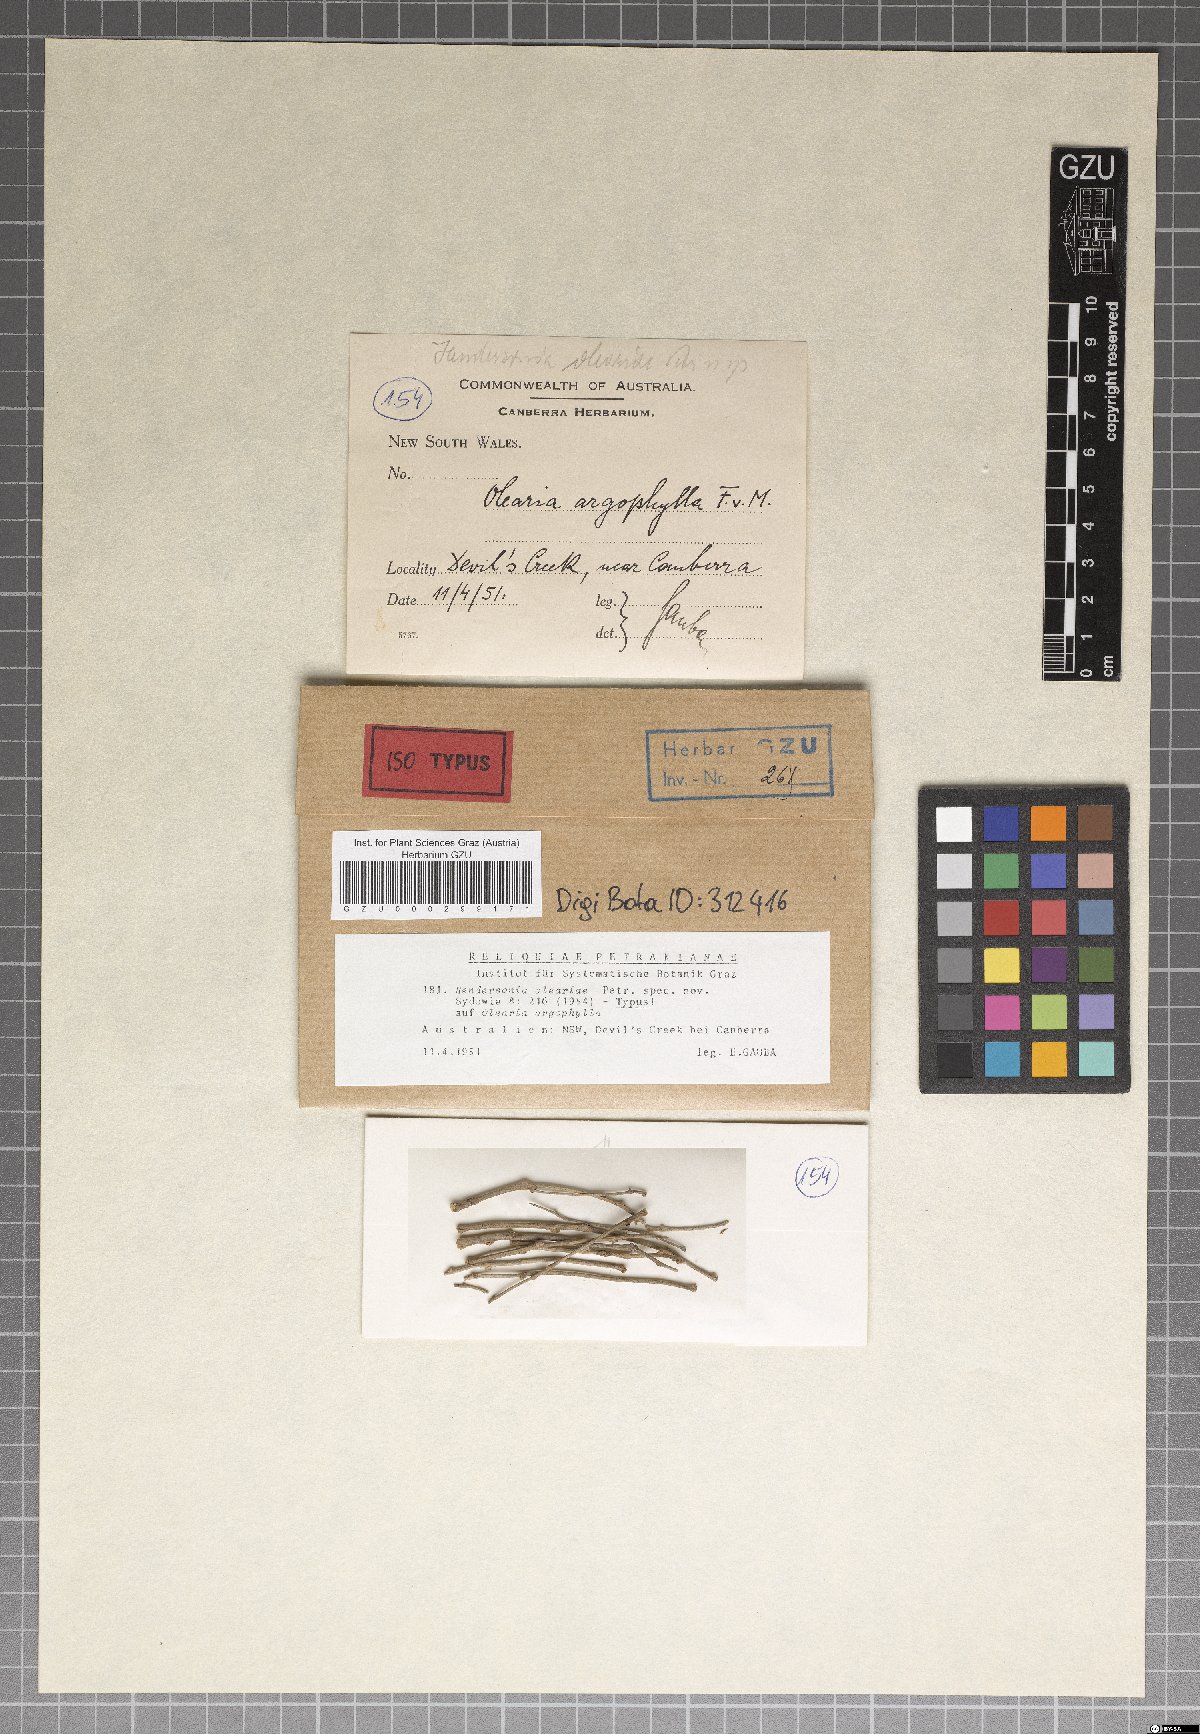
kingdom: Fungi
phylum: Ascomycota
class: Dothideomycetes
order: Pleosporales
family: Phaeosphaeriaceae
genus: Hendersonia
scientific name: Hendersonia oleariae
